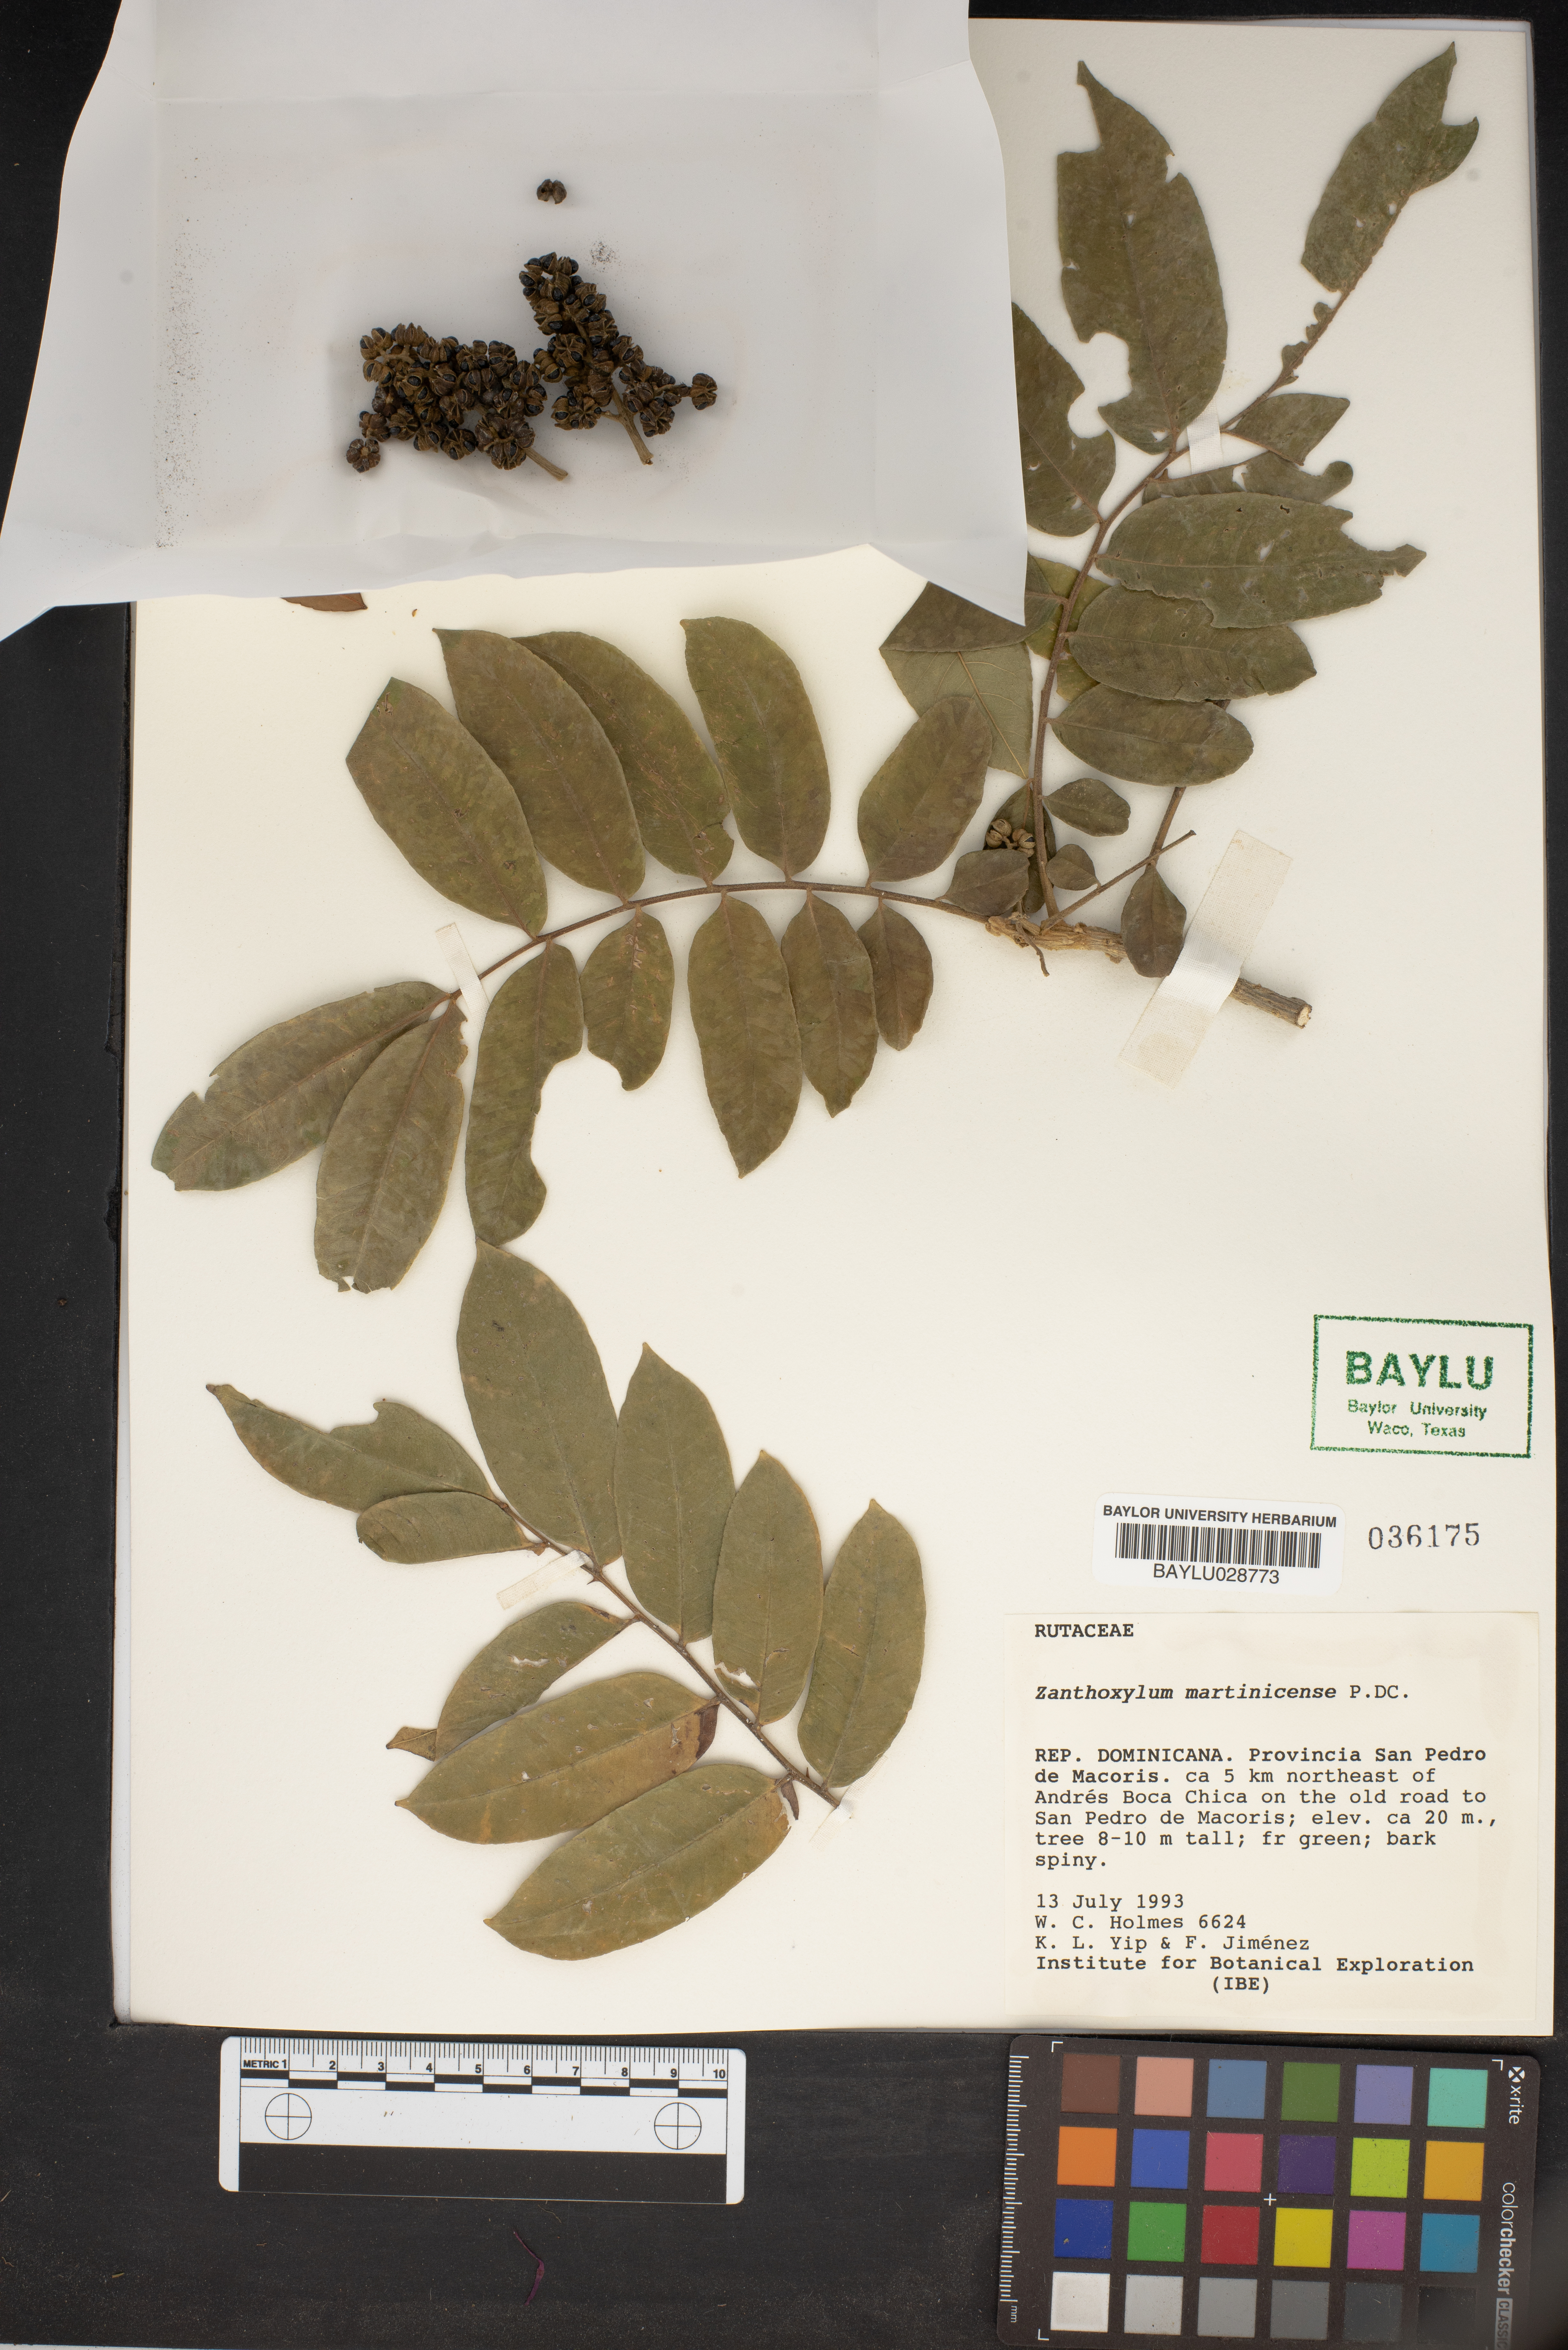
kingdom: Plantae
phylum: Tracheophyta
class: Magnoliopsida
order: Sapindales
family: Rutaceae
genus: Zanthoxylum
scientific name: Zanthoxylum martinicense
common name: Yellow prickle
